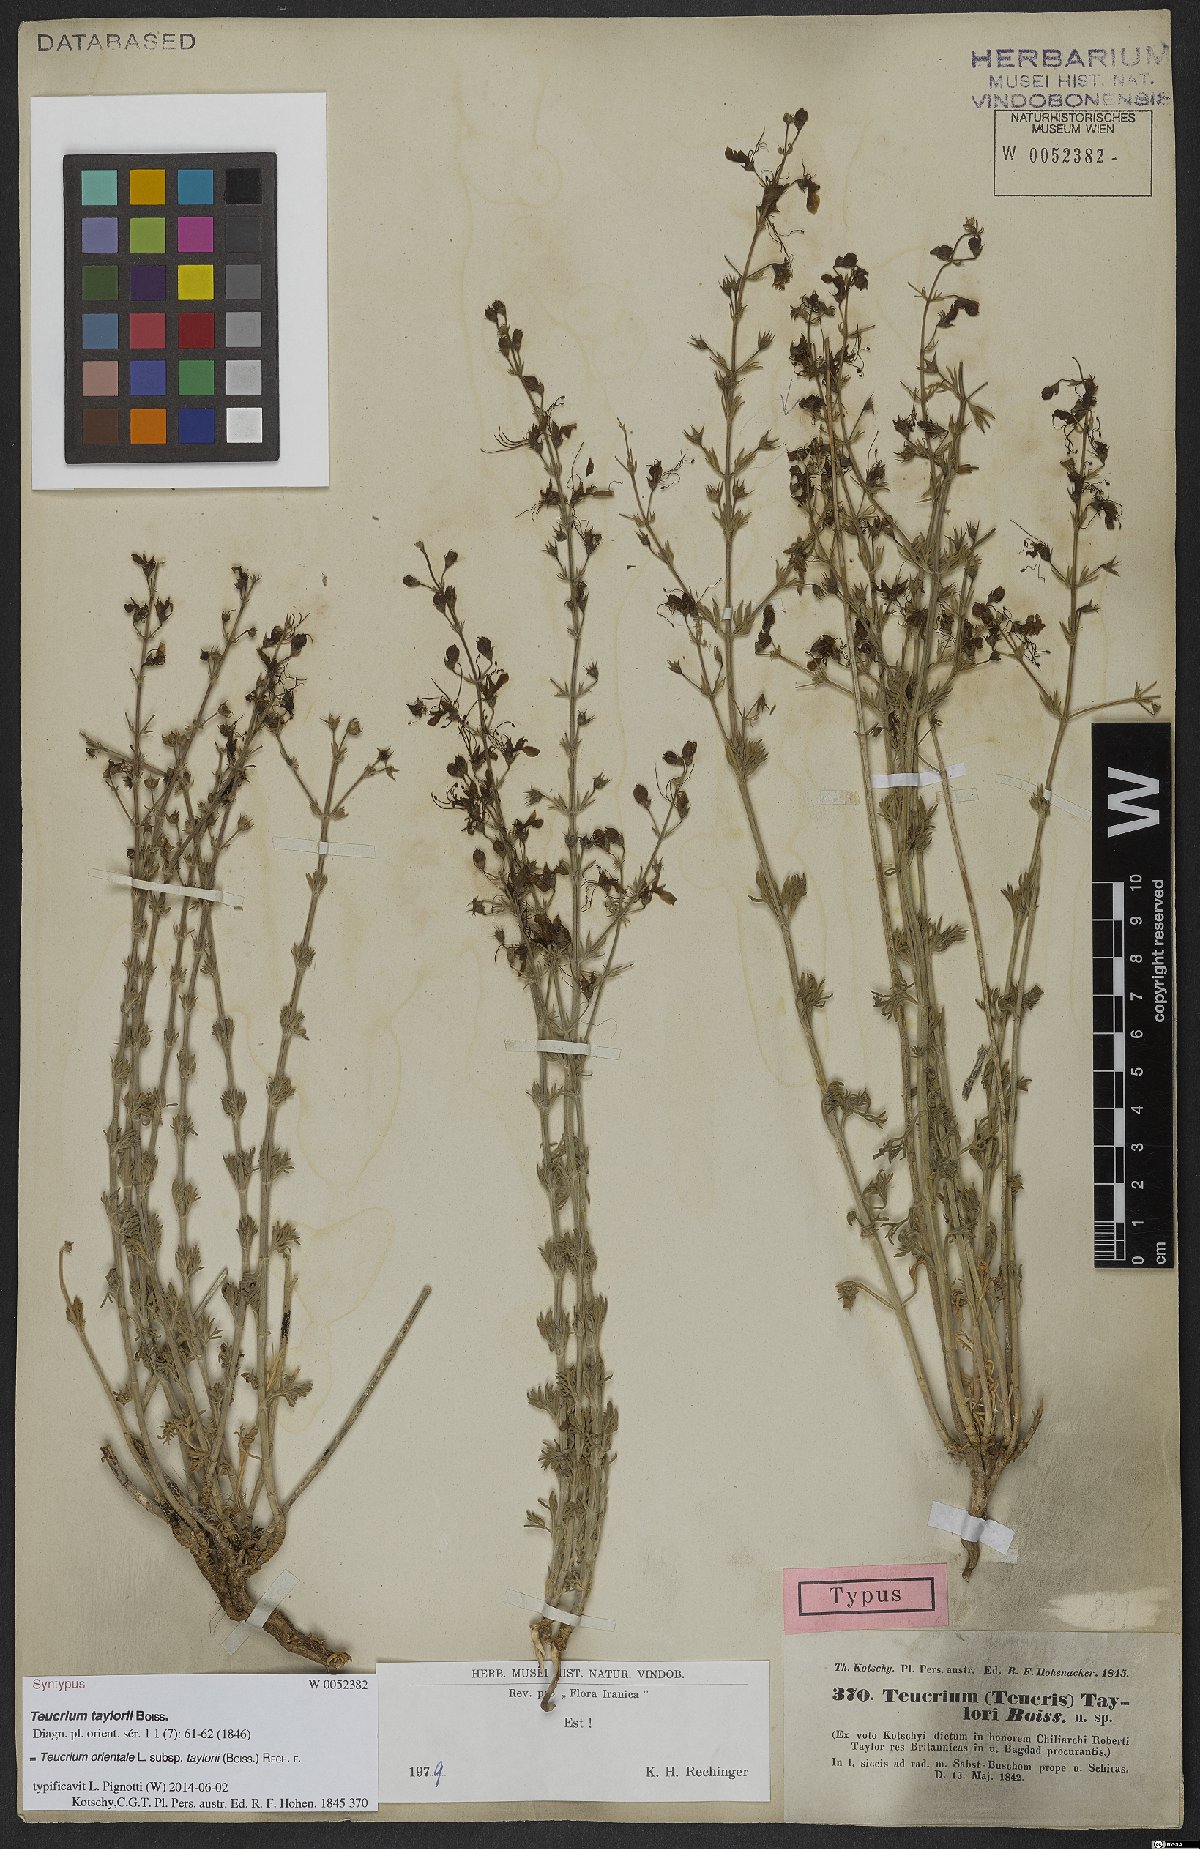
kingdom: Plantae
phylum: Tracheophyta
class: Magnoliopsida
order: Lamiales
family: Lamiaceae
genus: Teucrium
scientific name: Teucrium orientale
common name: Oriental germander
